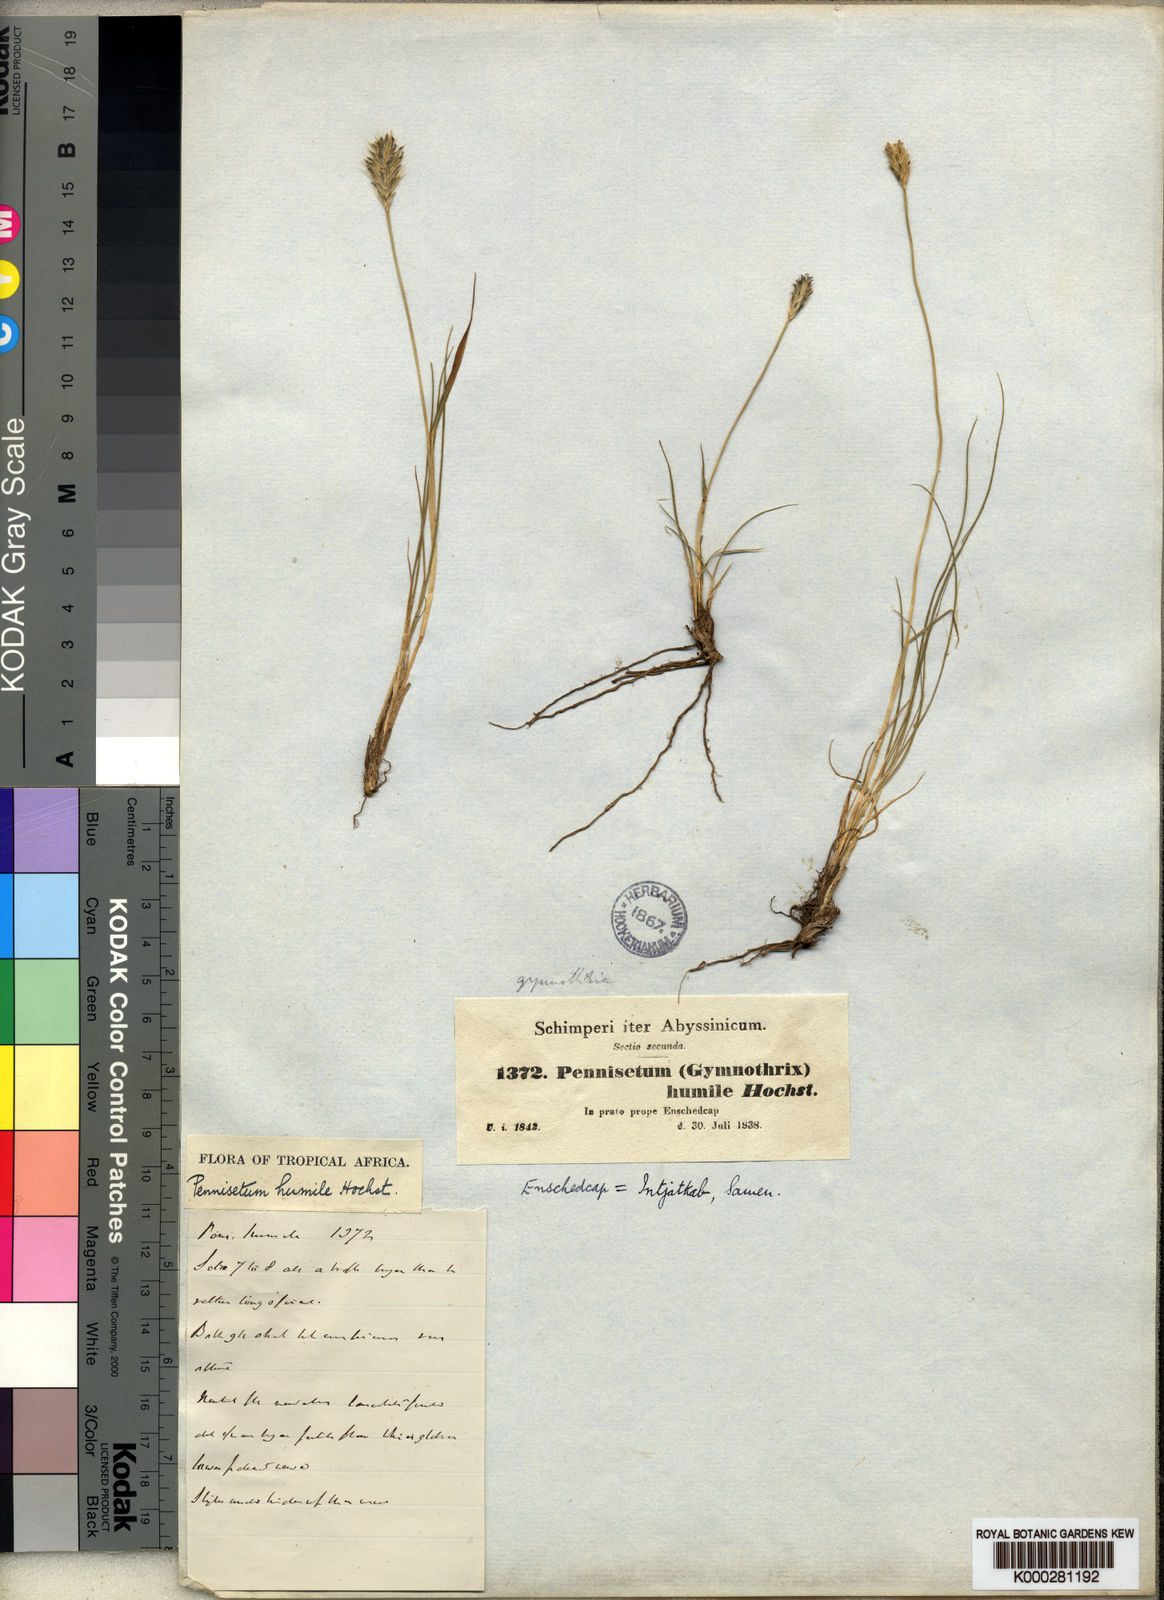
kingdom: Plantae
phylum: Tracheophyta
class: Liliopsida
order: Poales
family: Poaceae
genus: Cenchrus
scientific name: Cenchrus nanus
